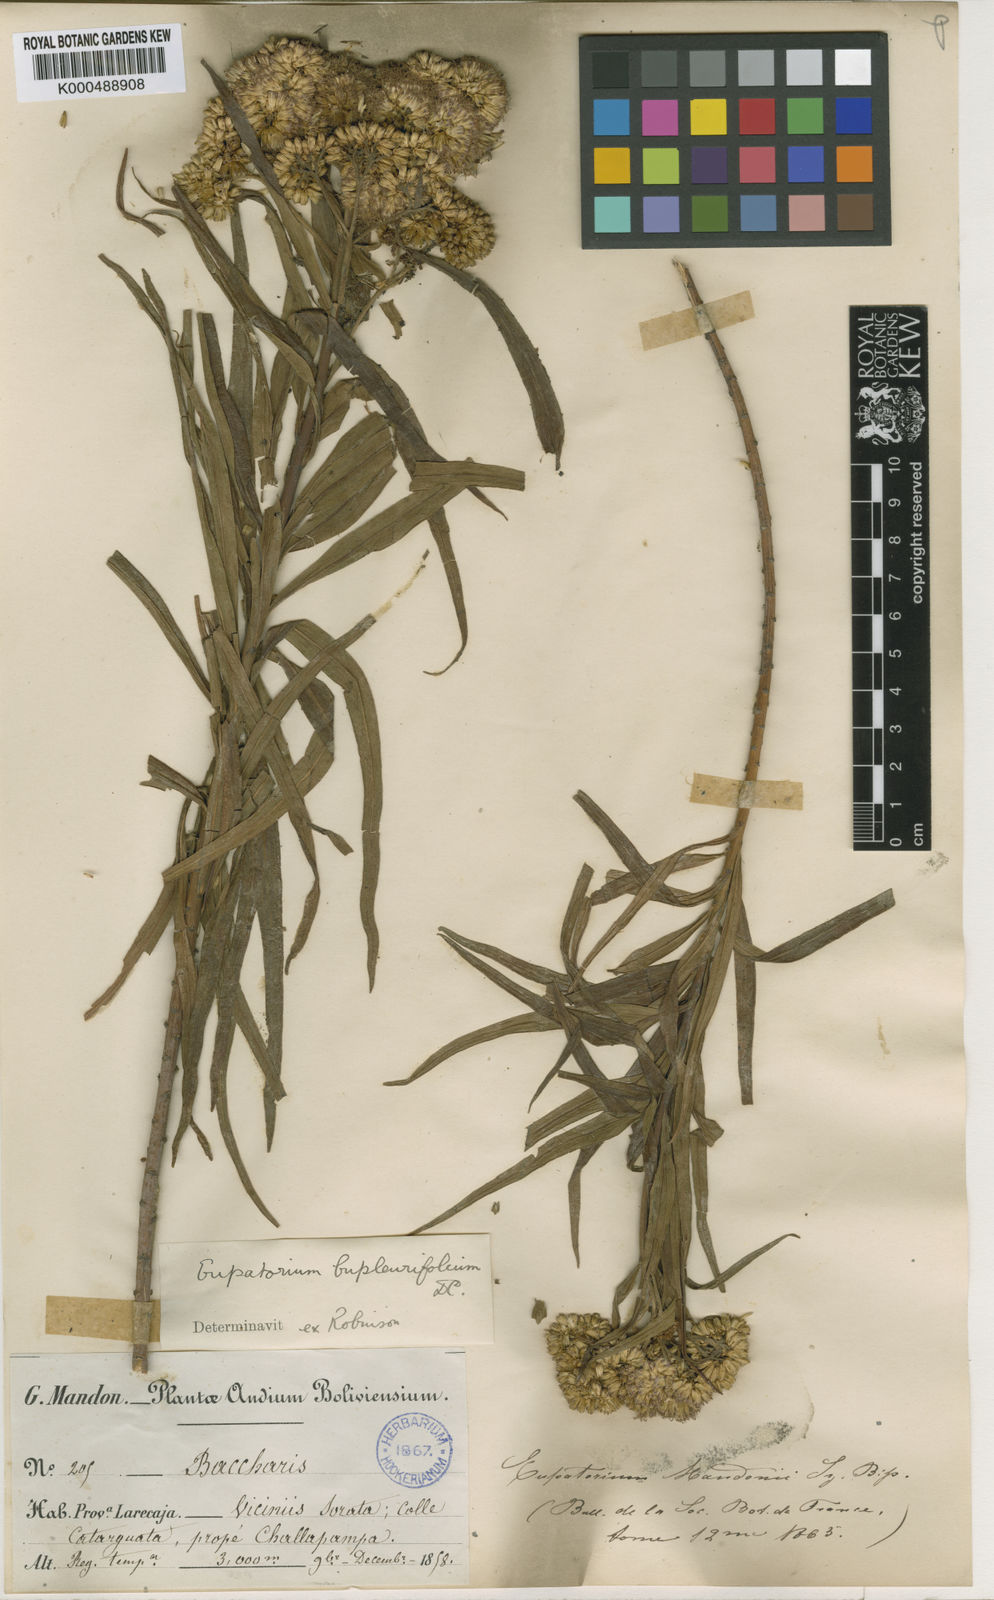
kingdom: Plantae
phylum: Tracheophyta
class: Magnoliopsida
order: Asterales
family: Asteraceae
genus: Campovassouria
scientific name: Campovassouria cruciata
